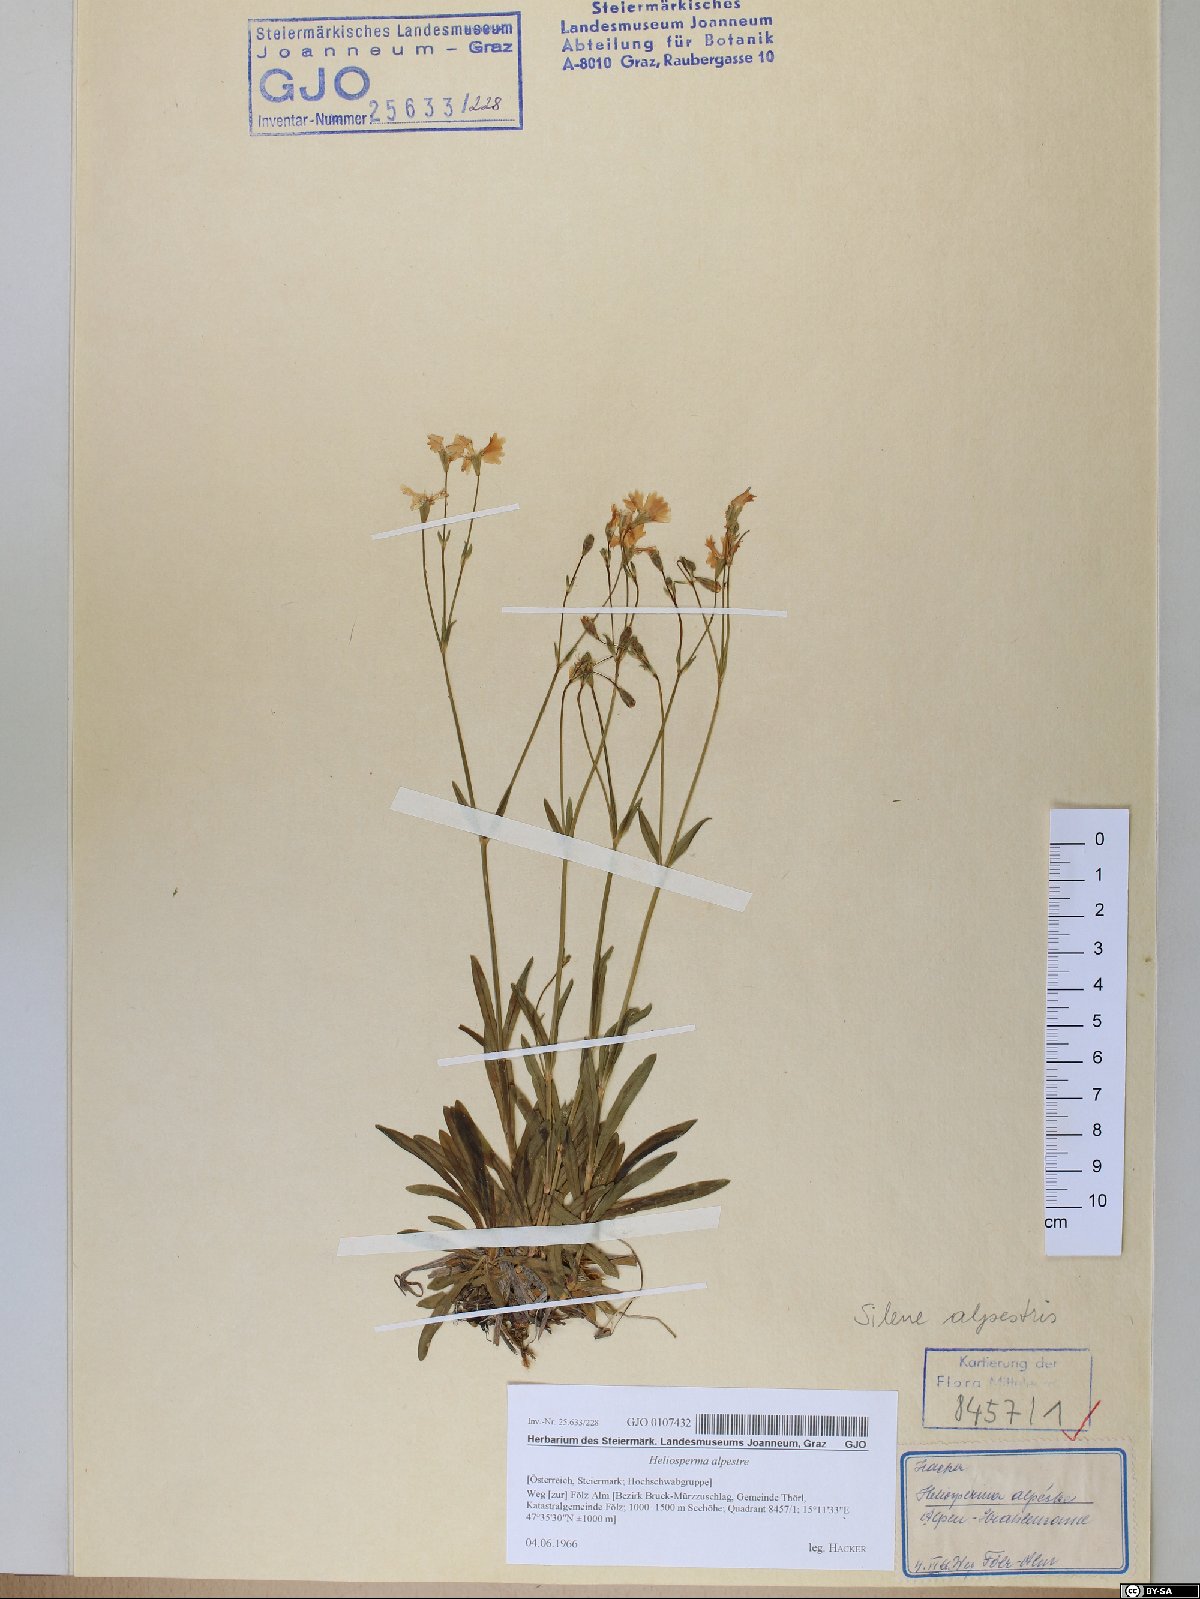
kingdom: Plantae
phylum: Tracheophyta
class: Magnoliopsida
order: Caryophyllales
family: Caryophyllaceae
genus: Heliosperma
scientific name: Heliosperma alpestre
